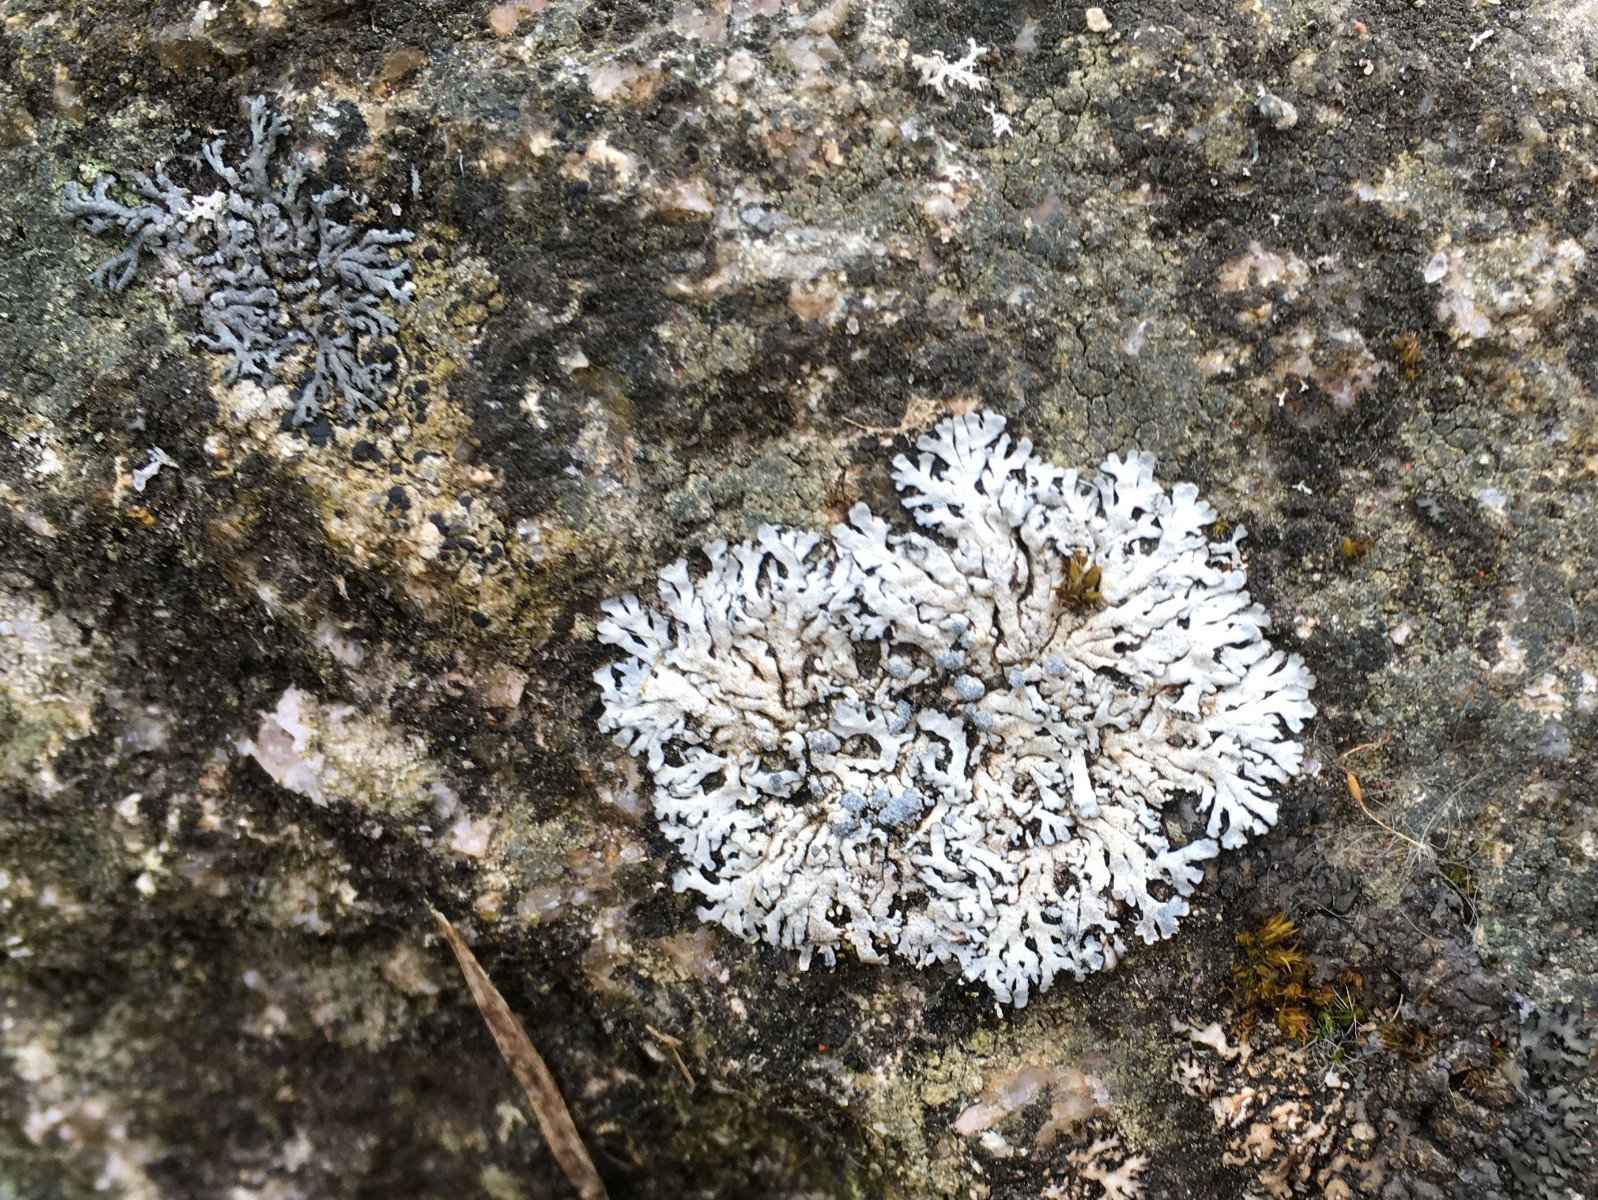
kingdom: Fungi
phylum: Ascomycota
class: Lecanoromycetes
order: Caliciales
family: Physciaceae
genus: Physcia
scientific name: Physcia caesia
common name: blågrå rosetlav
